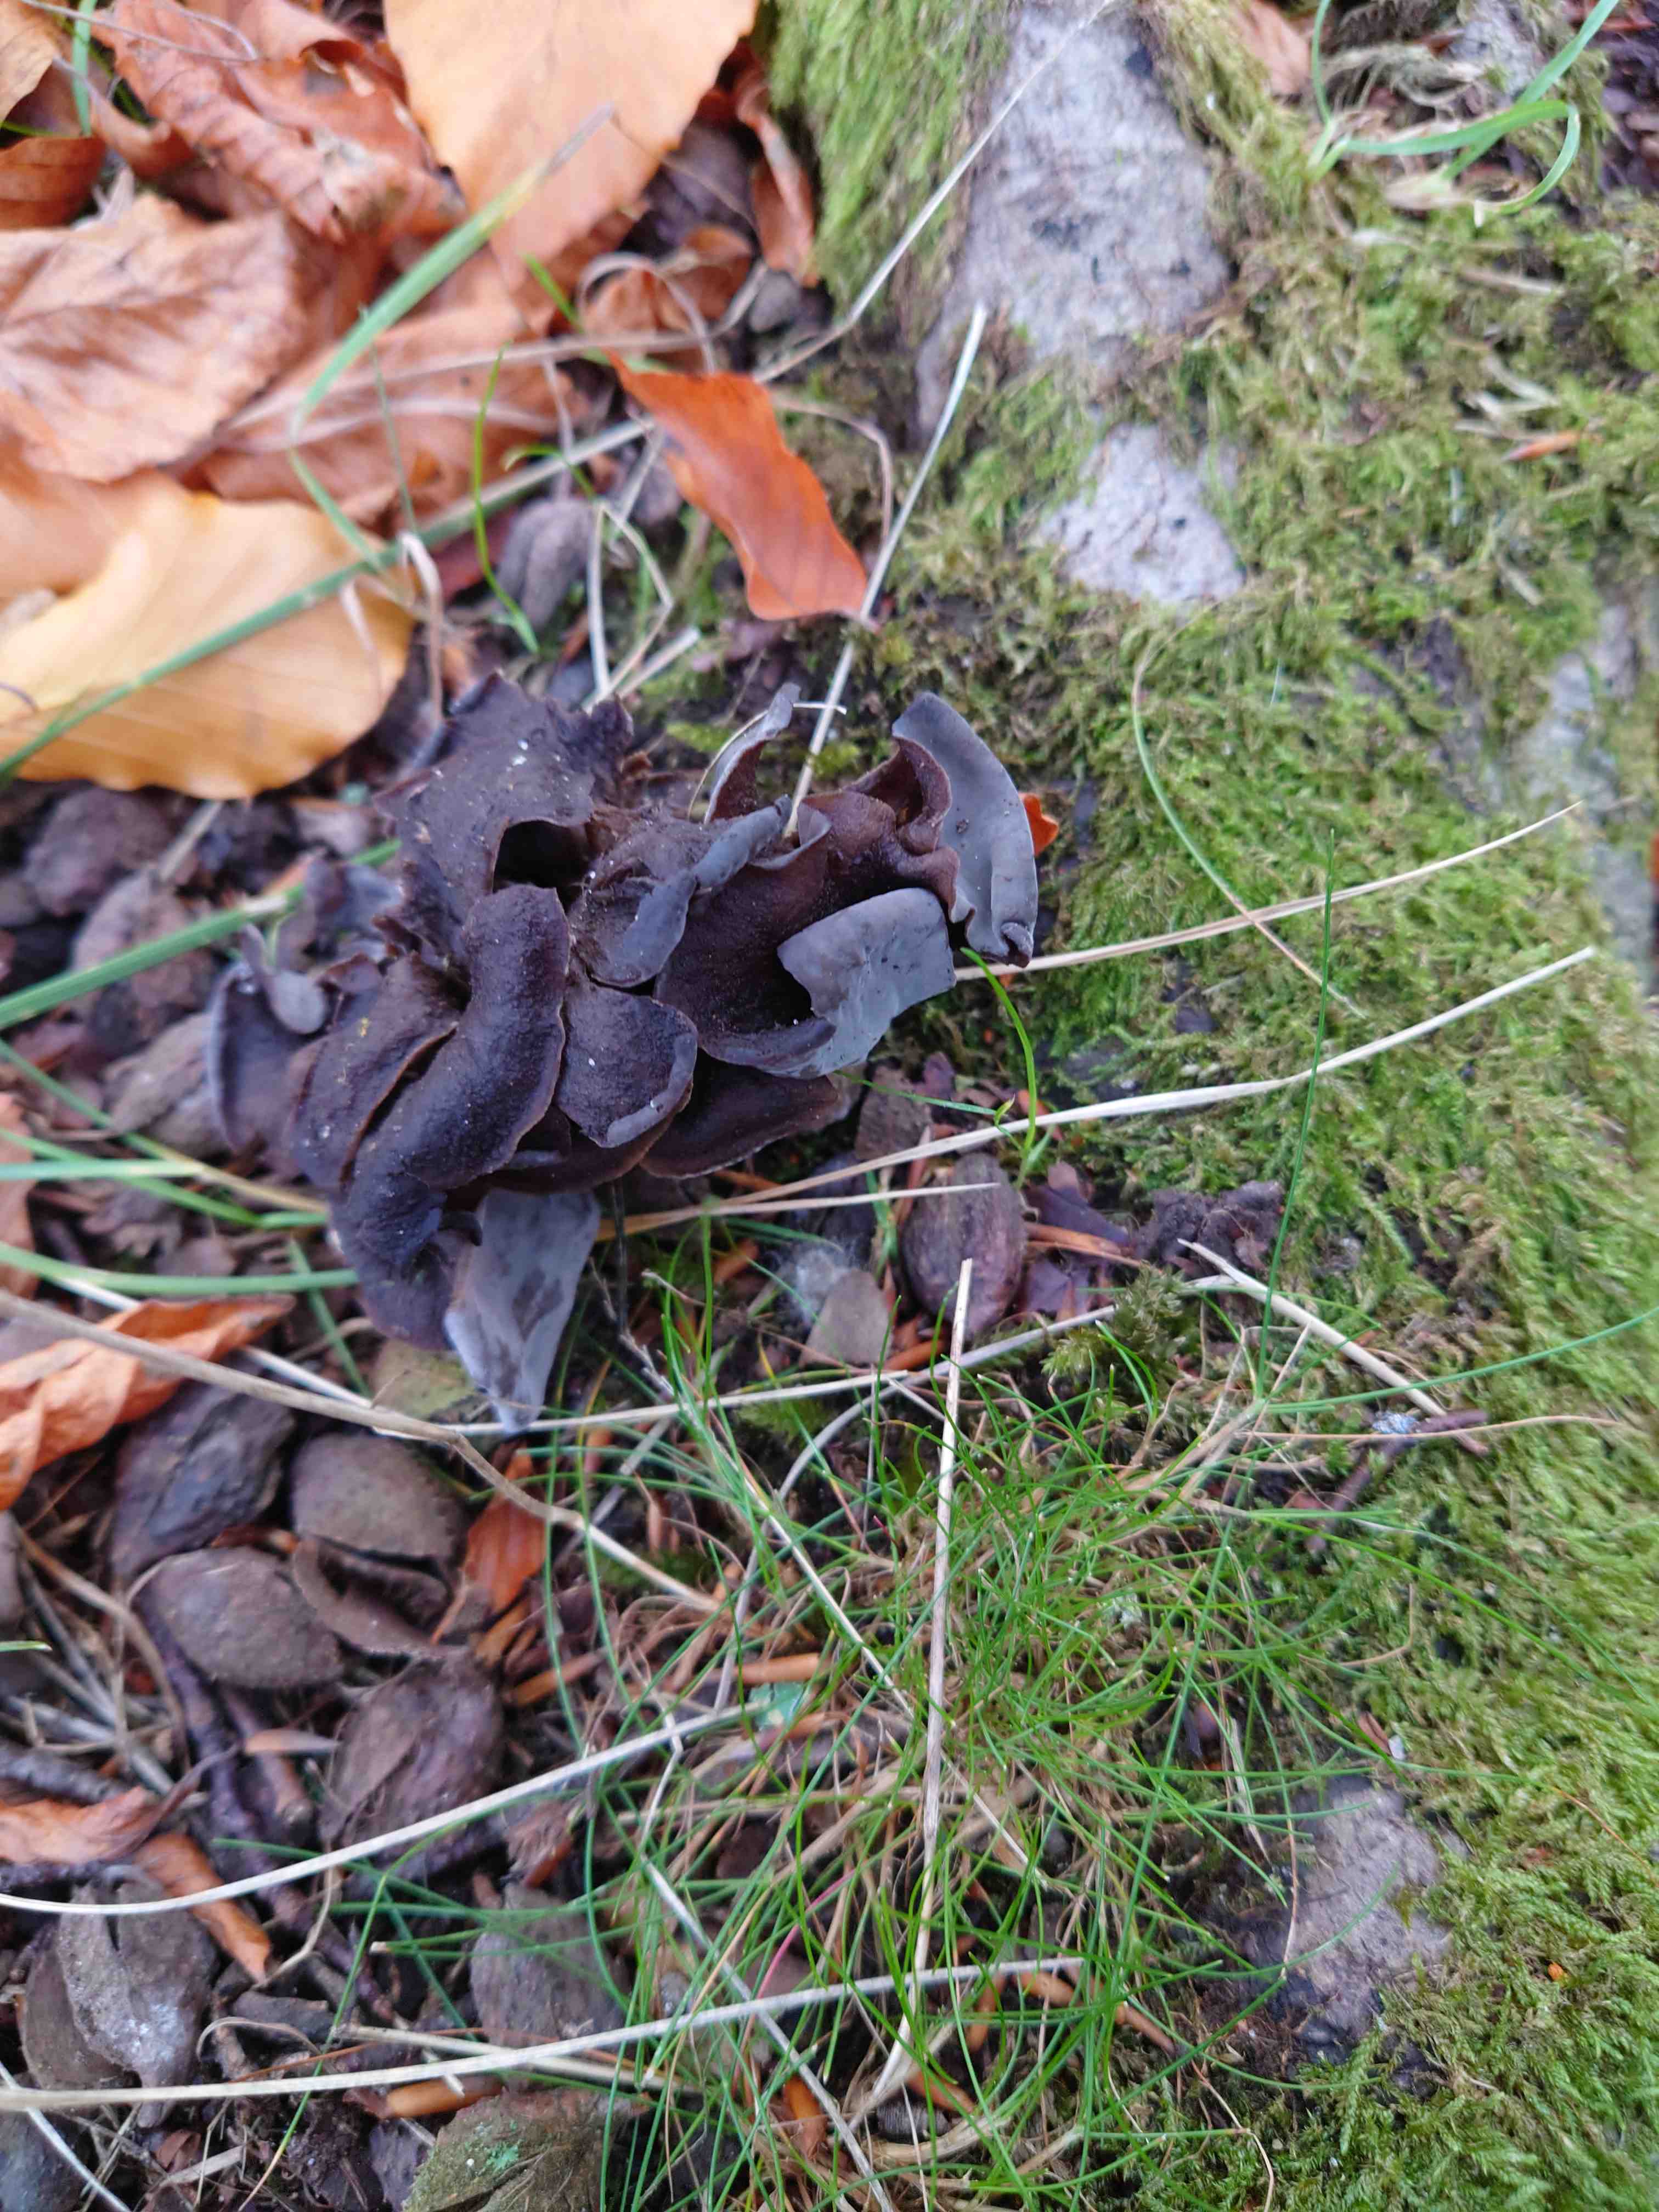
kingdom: Fungi
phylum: Basidiomycota
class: Agaricomycetes
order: Cantharellales
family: Hydnaceae
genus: Craterellus
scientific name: Craterellus cornucopioides
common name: trompetsvamp
